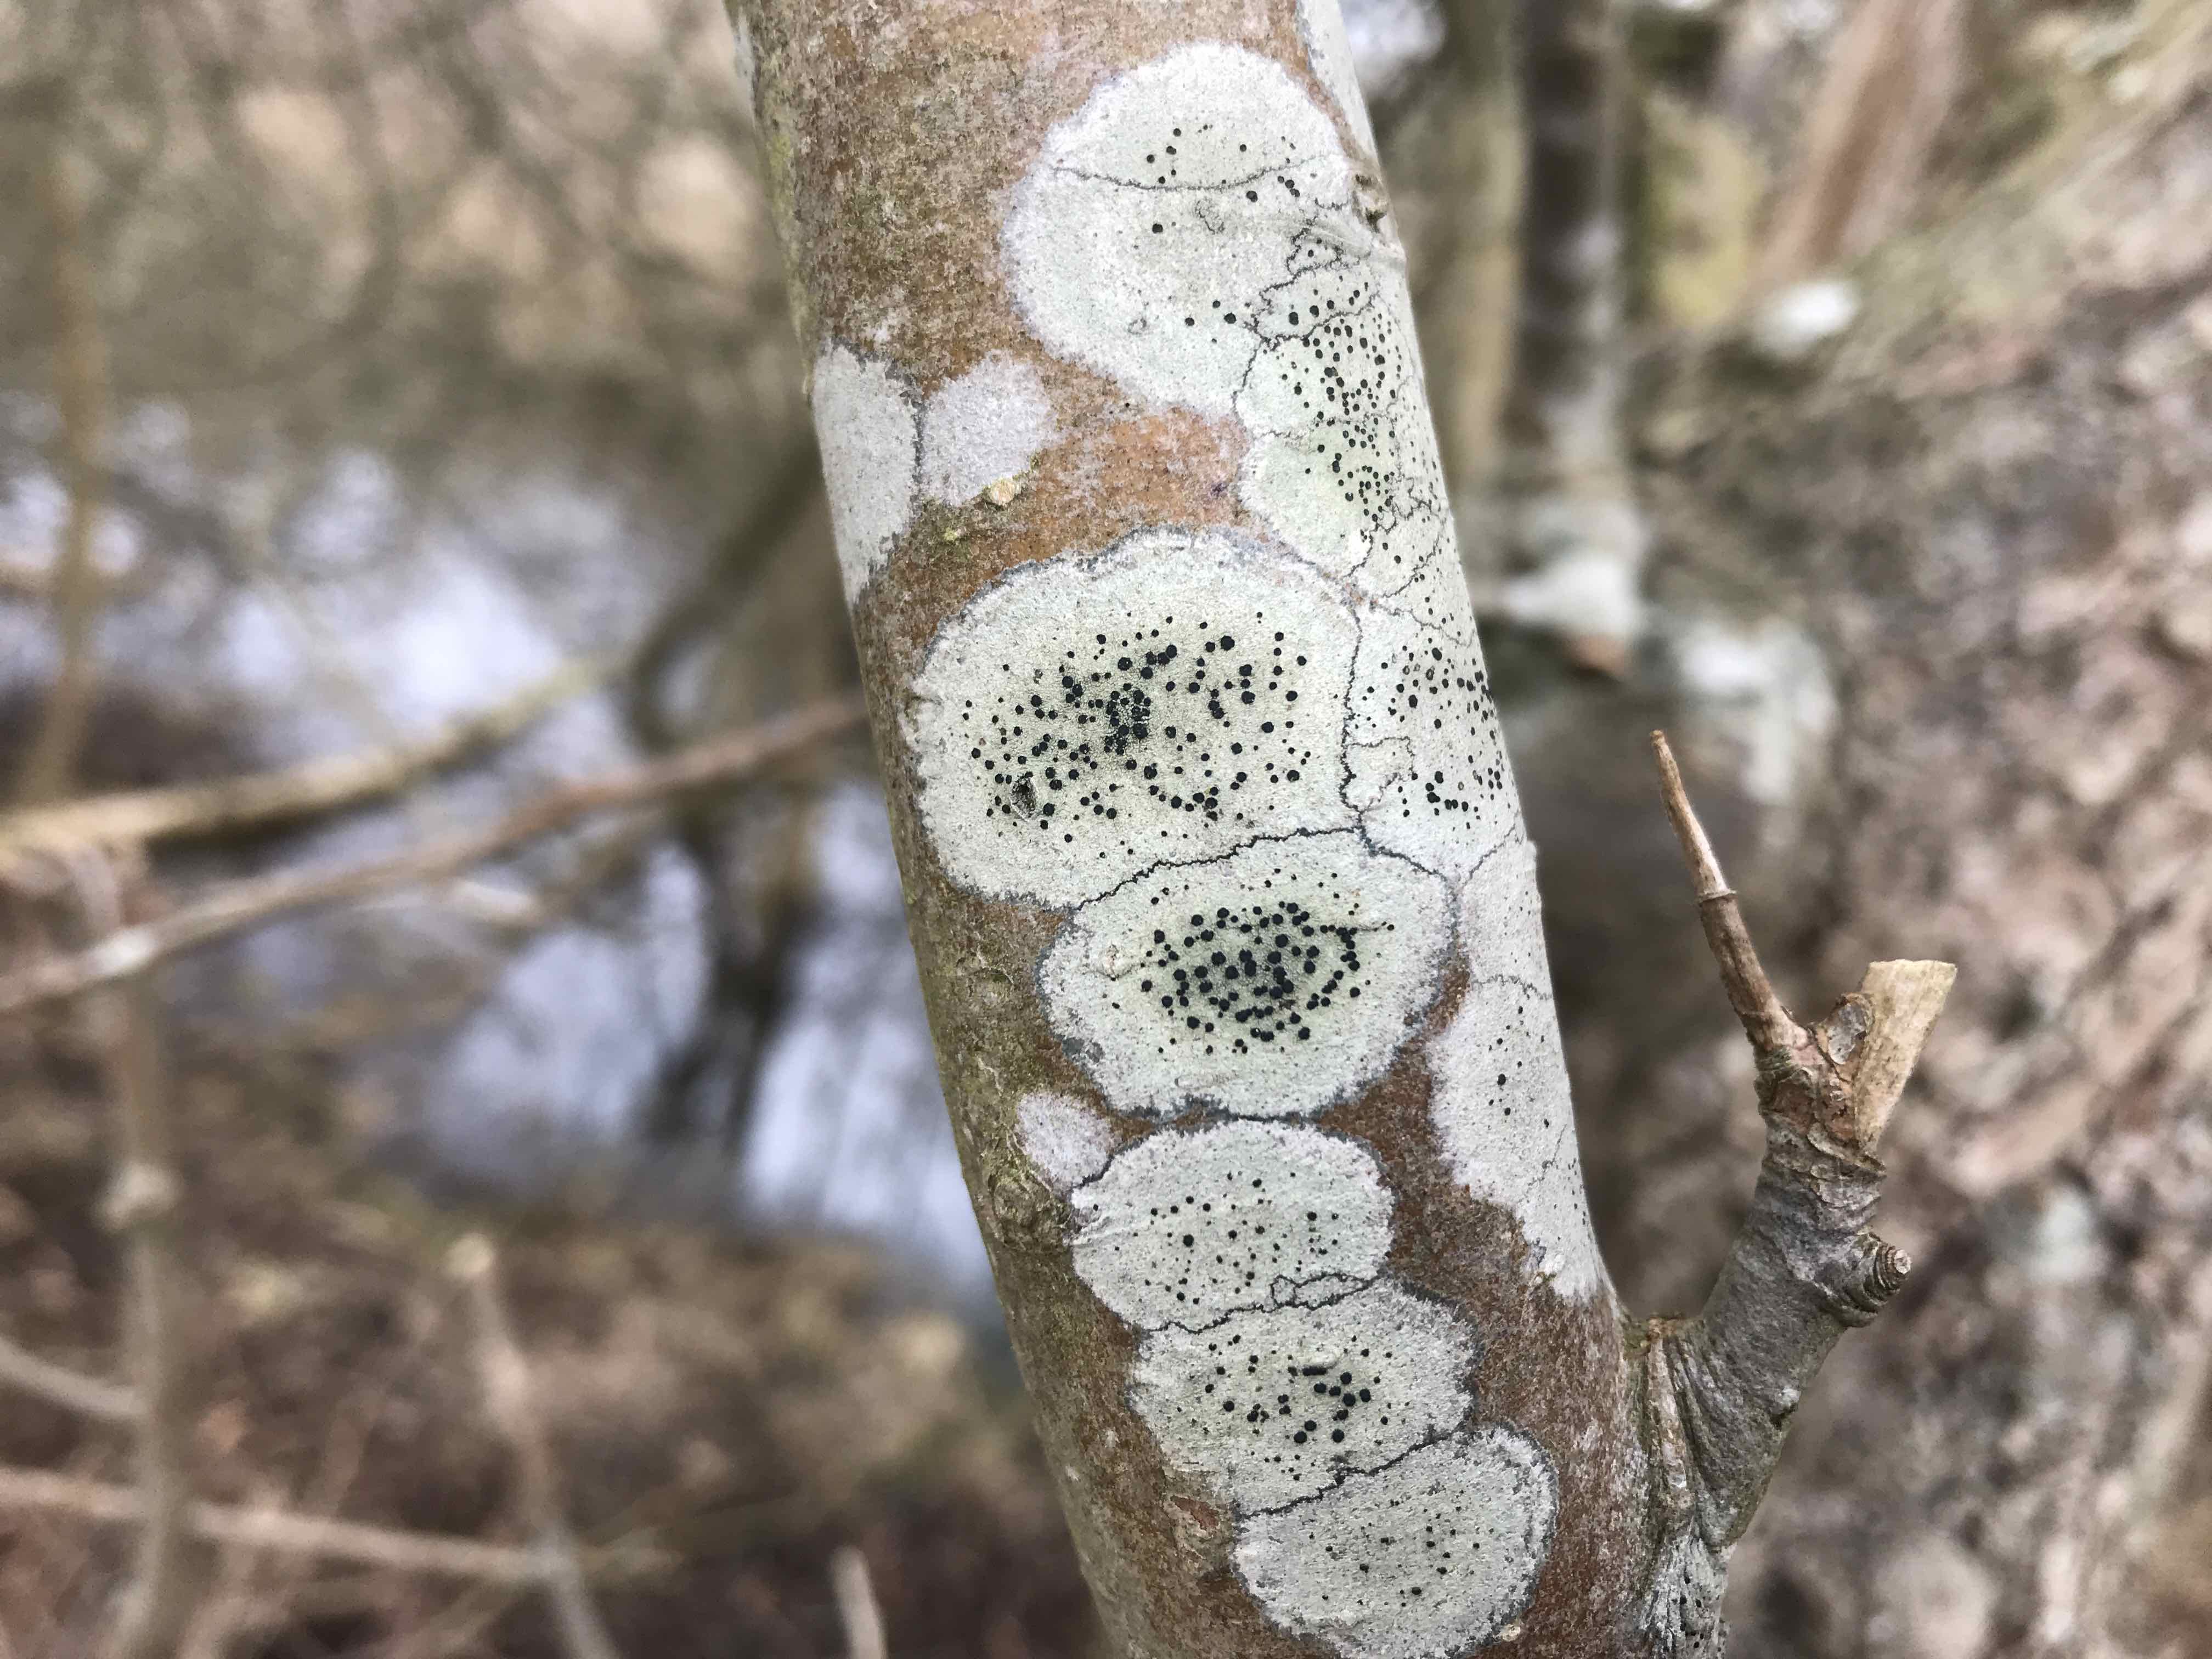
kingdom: Fungi
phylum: Ascomycota
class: Lecanoromycetes
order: Lecanorales
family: Lecanoraceae
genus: Lecidella
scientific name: Lecidella elaeochroma
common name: grågrøn skivelav
